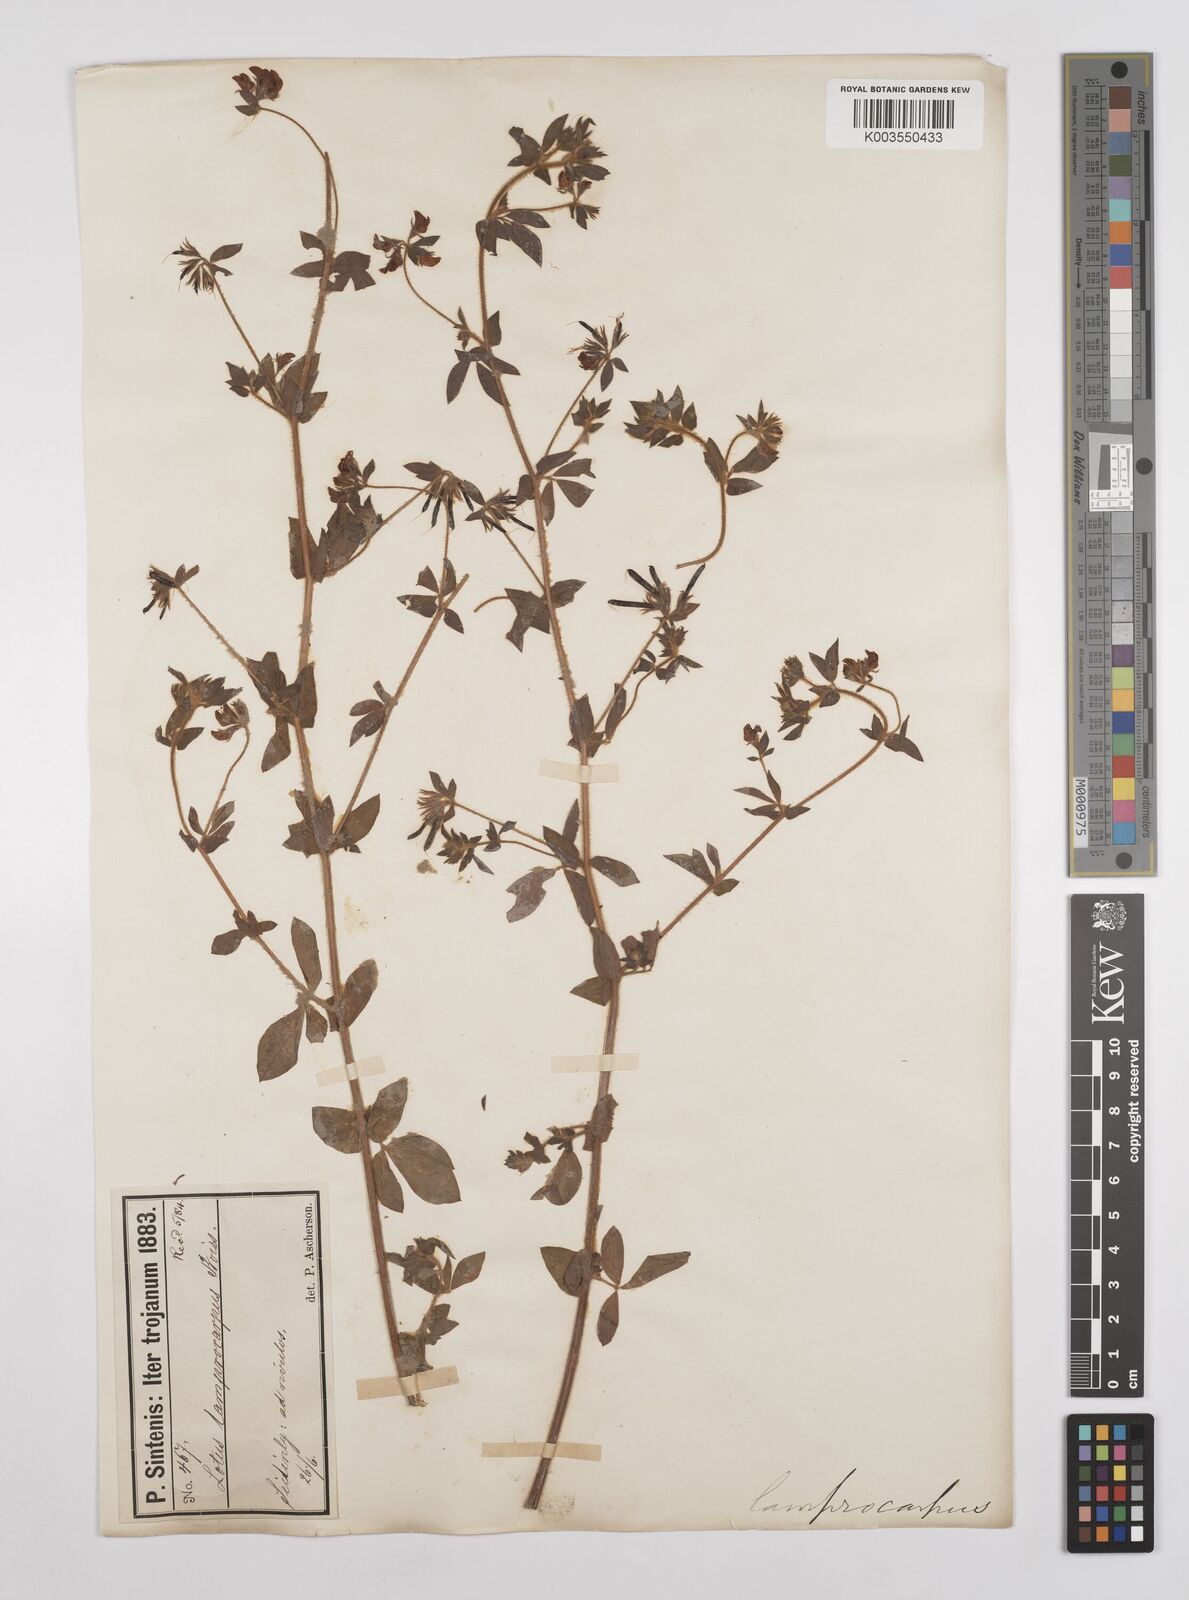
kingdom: Plantae
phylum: Tracheophyta
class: Magnoliopsida
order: Fabales
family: Fabaceae
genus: Lotus
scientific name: Lotus palustris
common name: Large birds-foot trefoil
